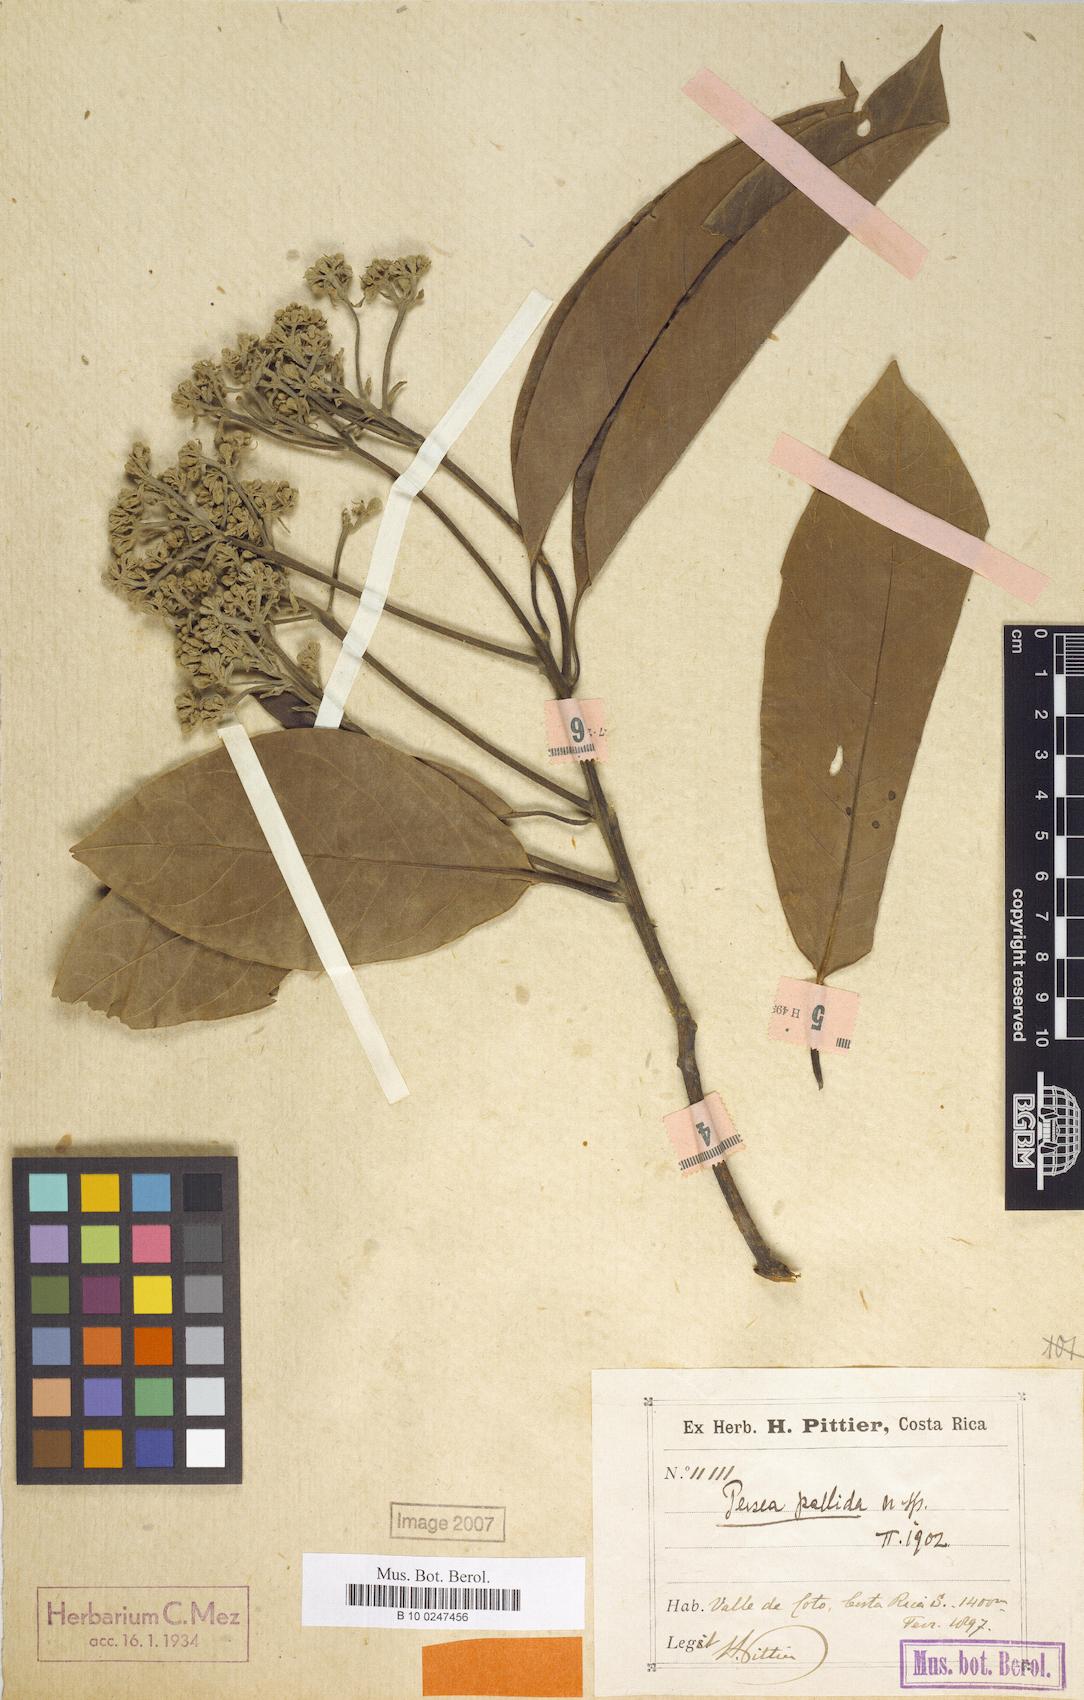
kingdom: Plantae
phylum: Tracheophyta
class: Magnoliopsida
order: Laurales
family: Lauraceae
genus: Persea
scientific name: Persea albida
